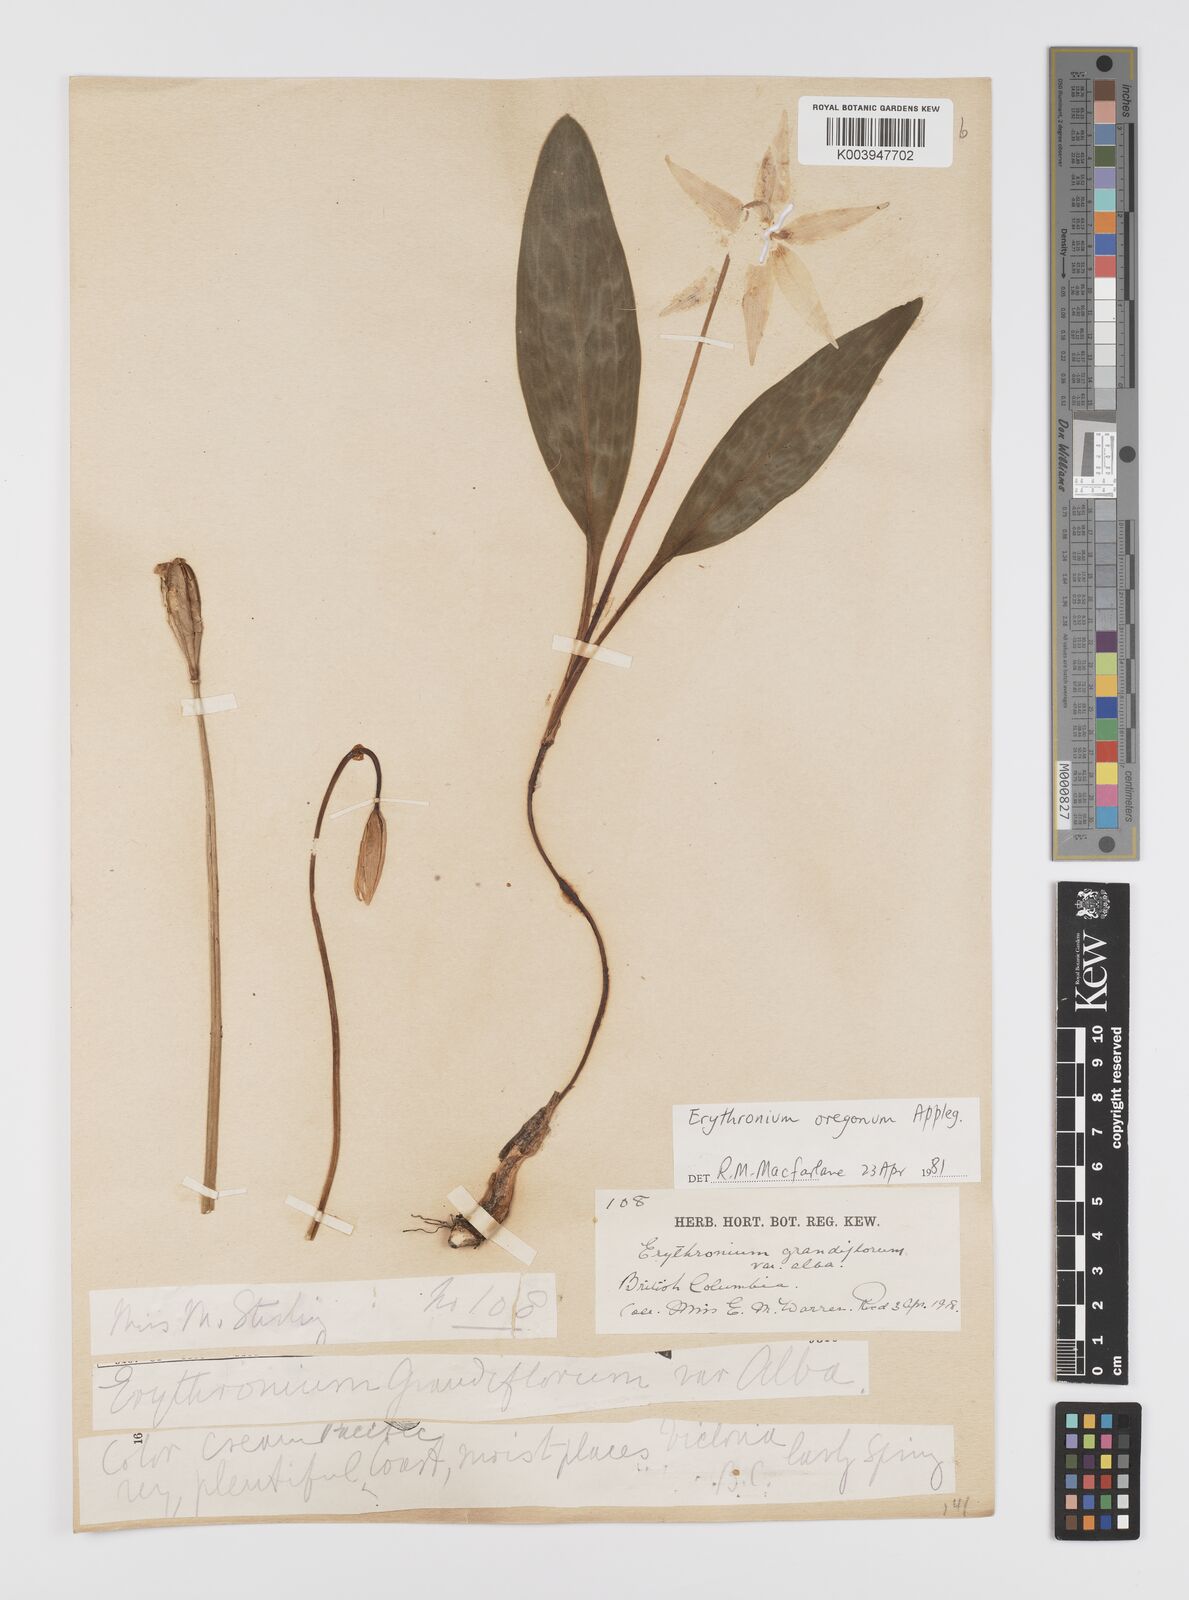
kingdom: Plantae
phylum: Tracheophyta
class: Liliopsida
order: Liliales
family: Liliaceae
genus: Erythronium
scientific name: Erythronium oregonum
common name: Giant adder's-tongue
